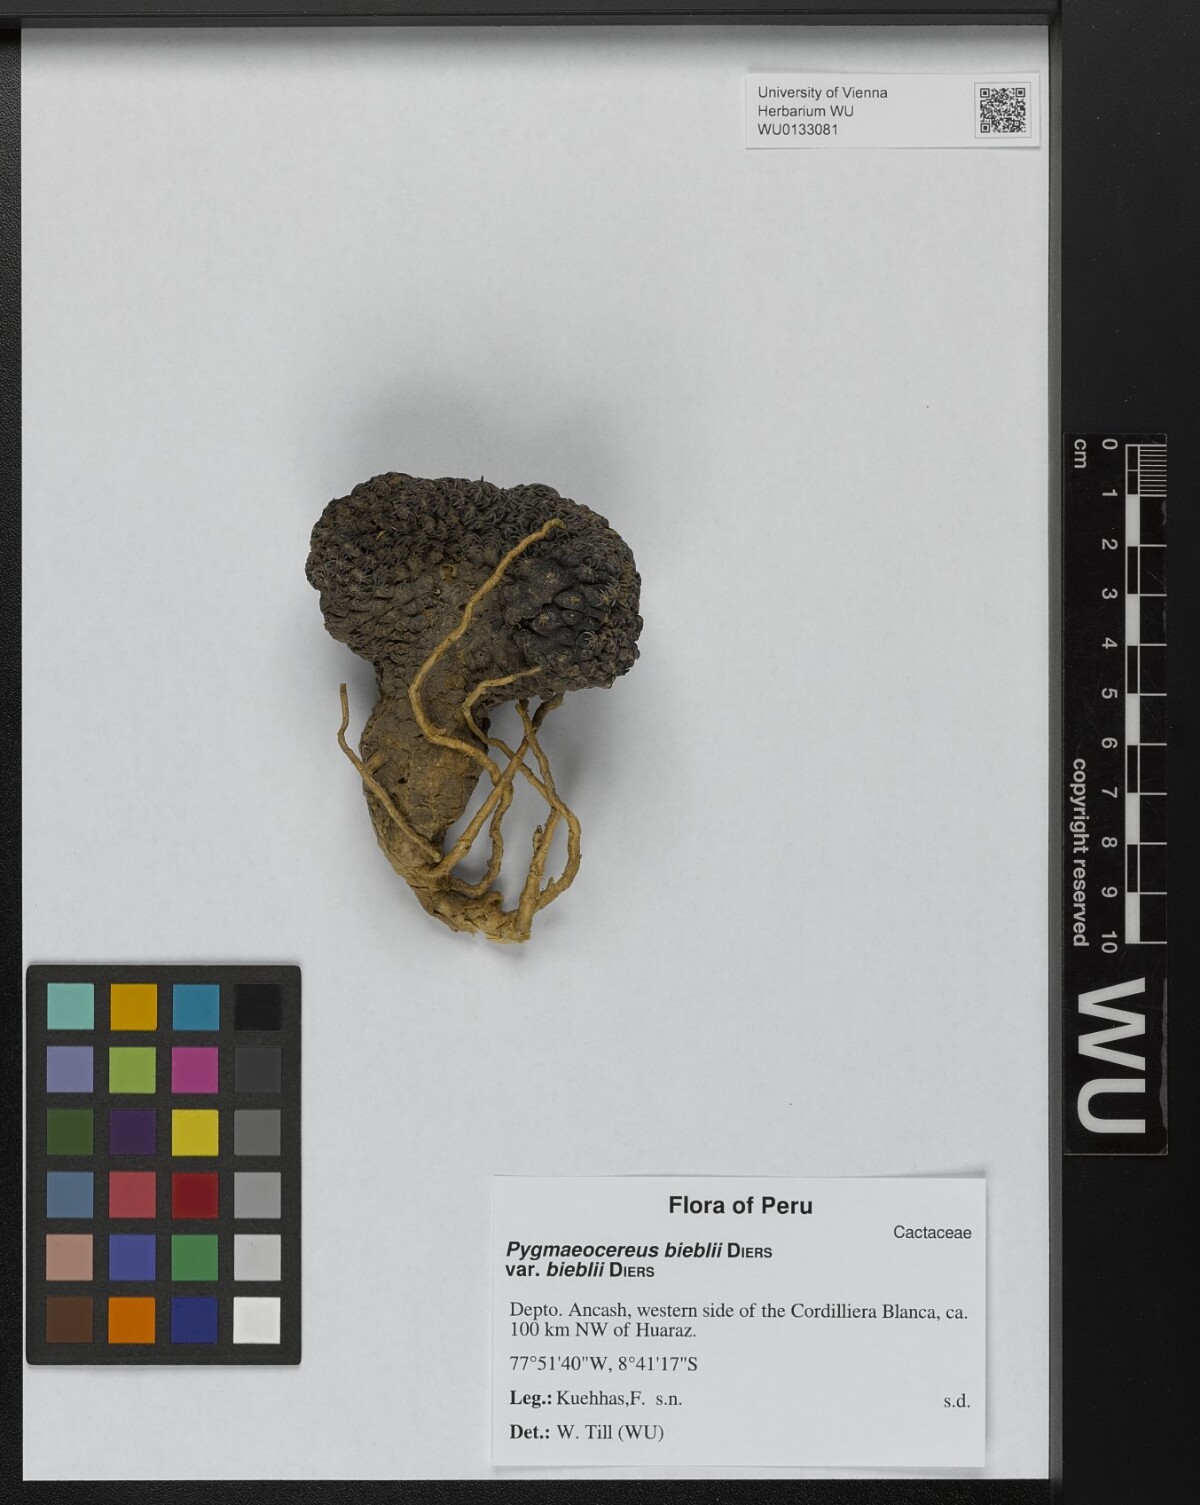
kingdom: Plantae
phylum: Tracheophyta
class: Magnoliopsida
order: Caryophyllales
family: Cactaceae
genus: Haageocereus
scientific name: Haageocereus bieblii
